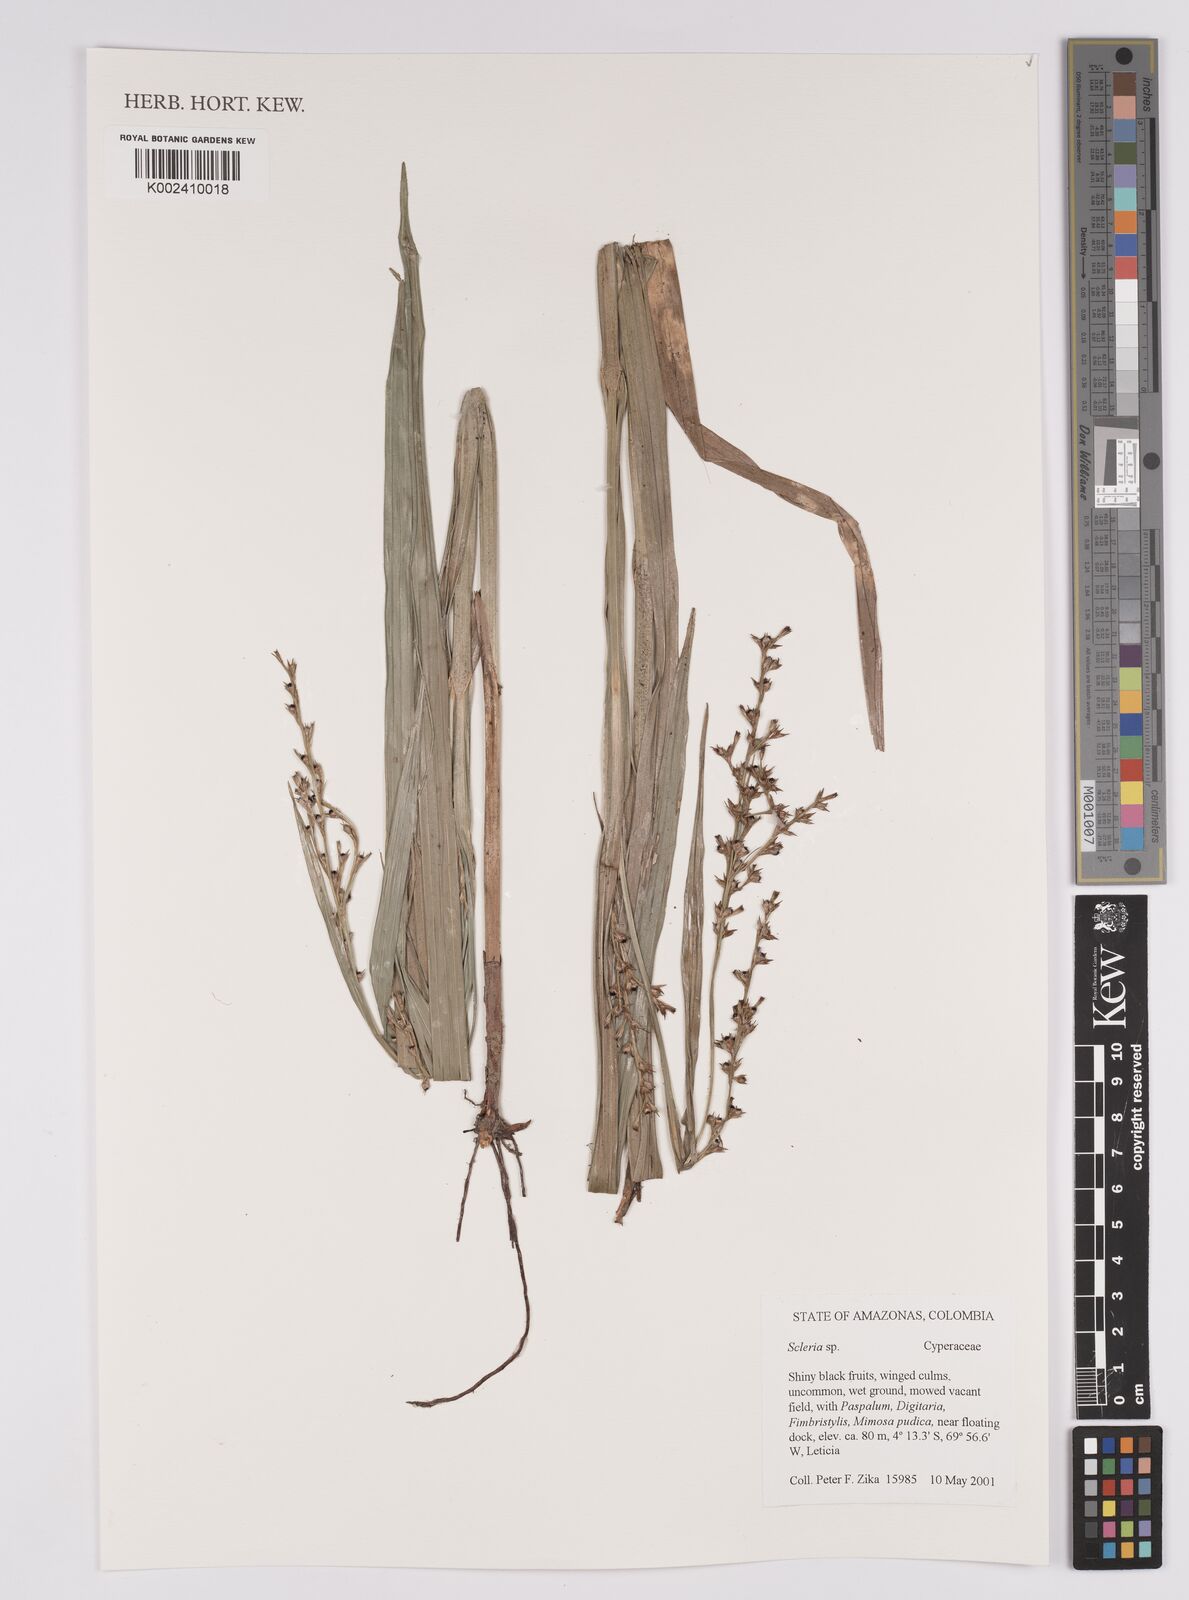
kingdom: Plantae
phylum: Tracheophyta
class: Liliopsida
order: Poales
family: Cyperaceae
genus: Scleria
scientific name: Scleria
